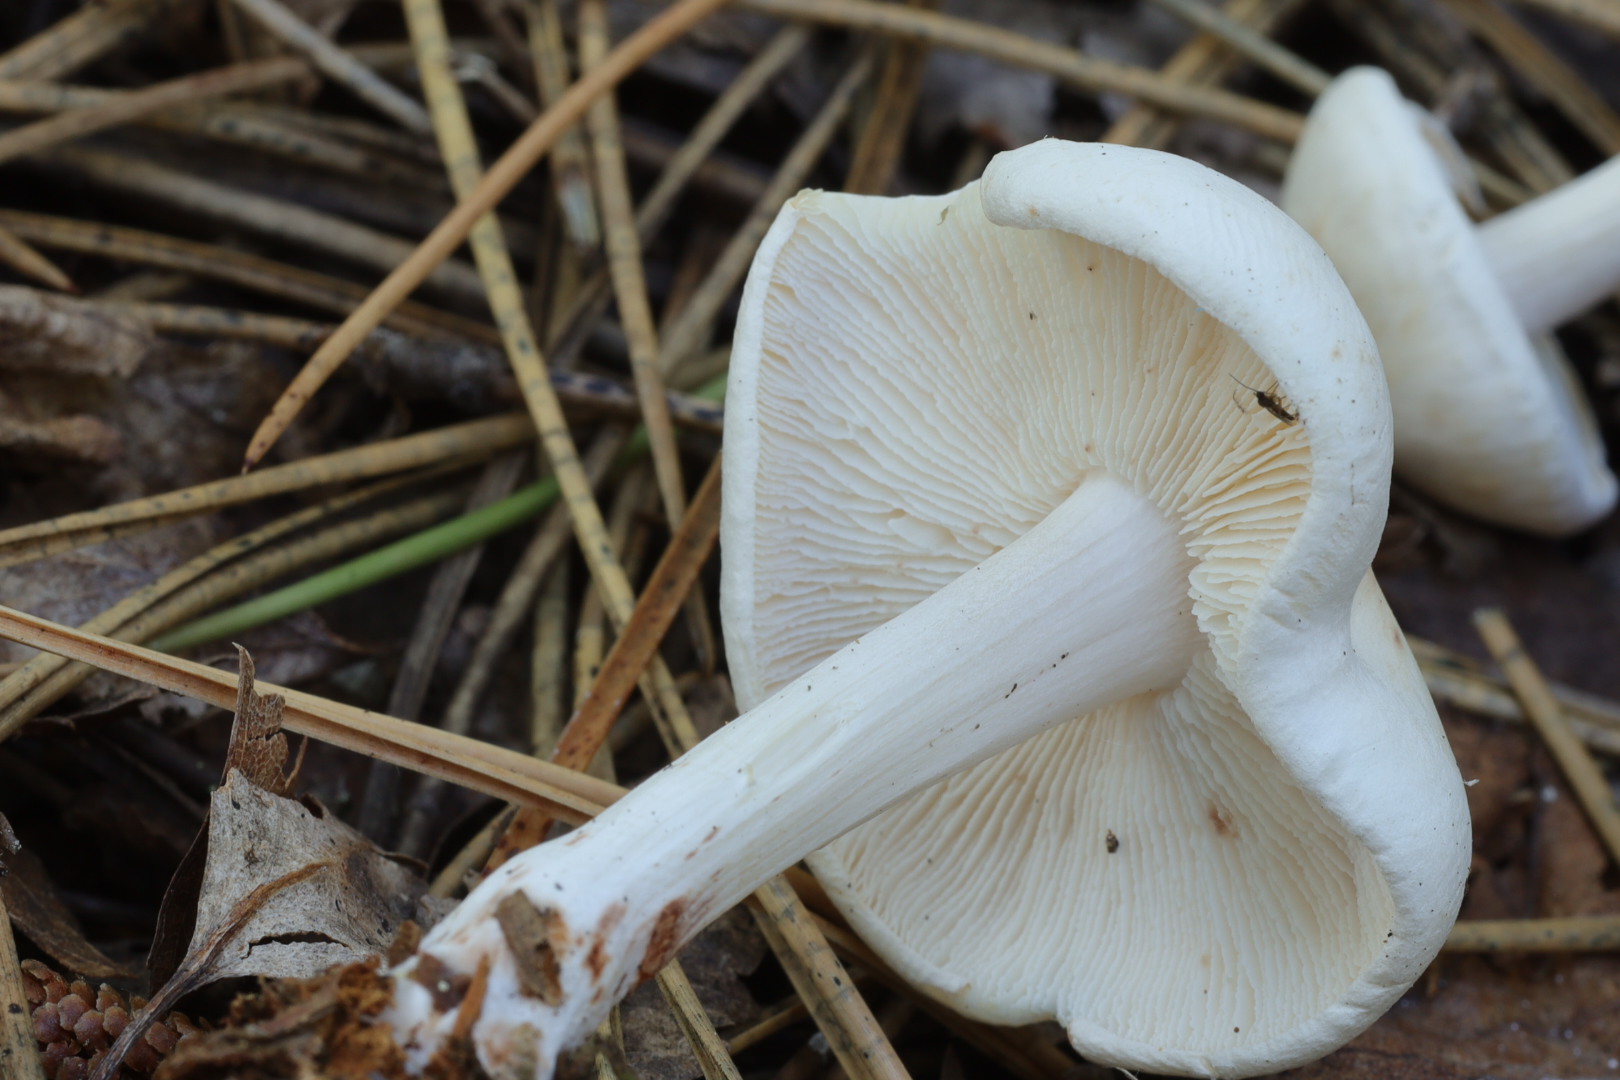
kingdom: Fungi
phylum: Basidiomycota
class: Agaricomycetes
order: Agaricales
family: Omphalotaceae
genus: Rhodocollybia
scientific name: Rhodocollybia maculata
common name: plettet fladhat
